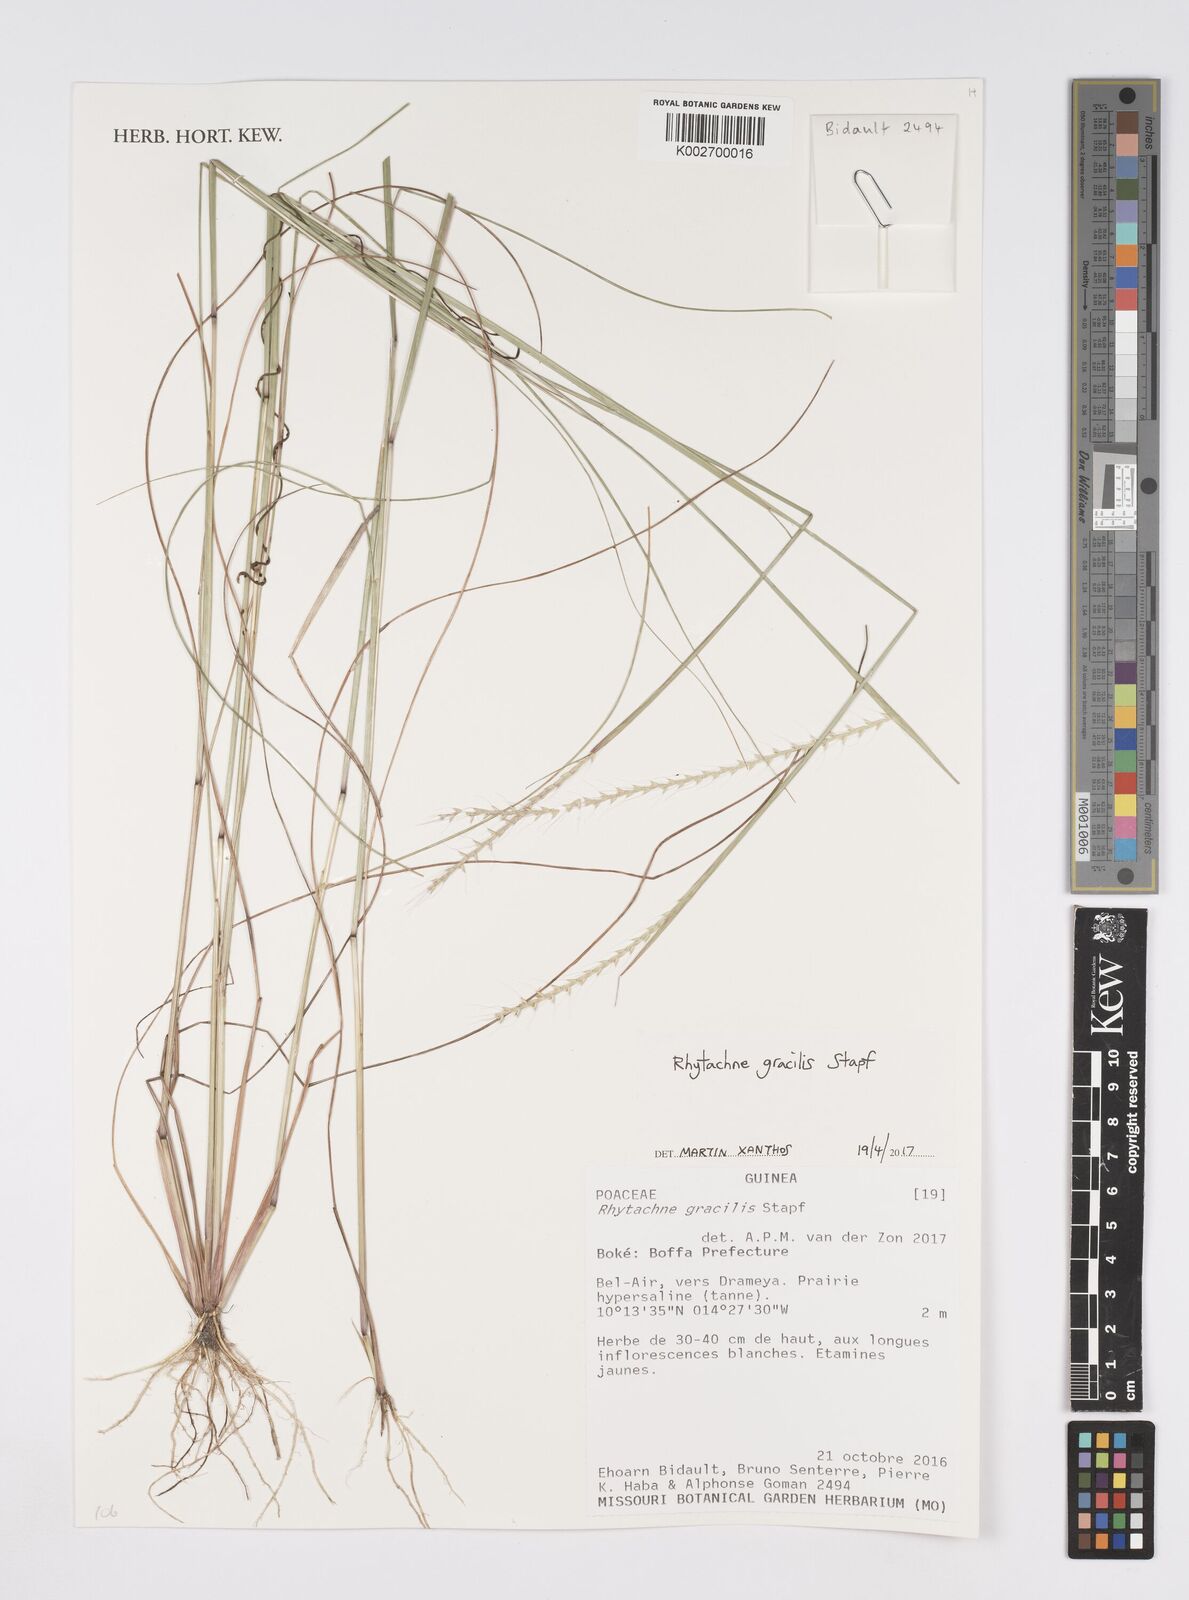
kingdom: Plantae
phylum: Tracheophyta
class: Liliopsida
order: Poales
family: Poaceae
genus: Rhytachne
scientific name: Rhytachne gracilis
